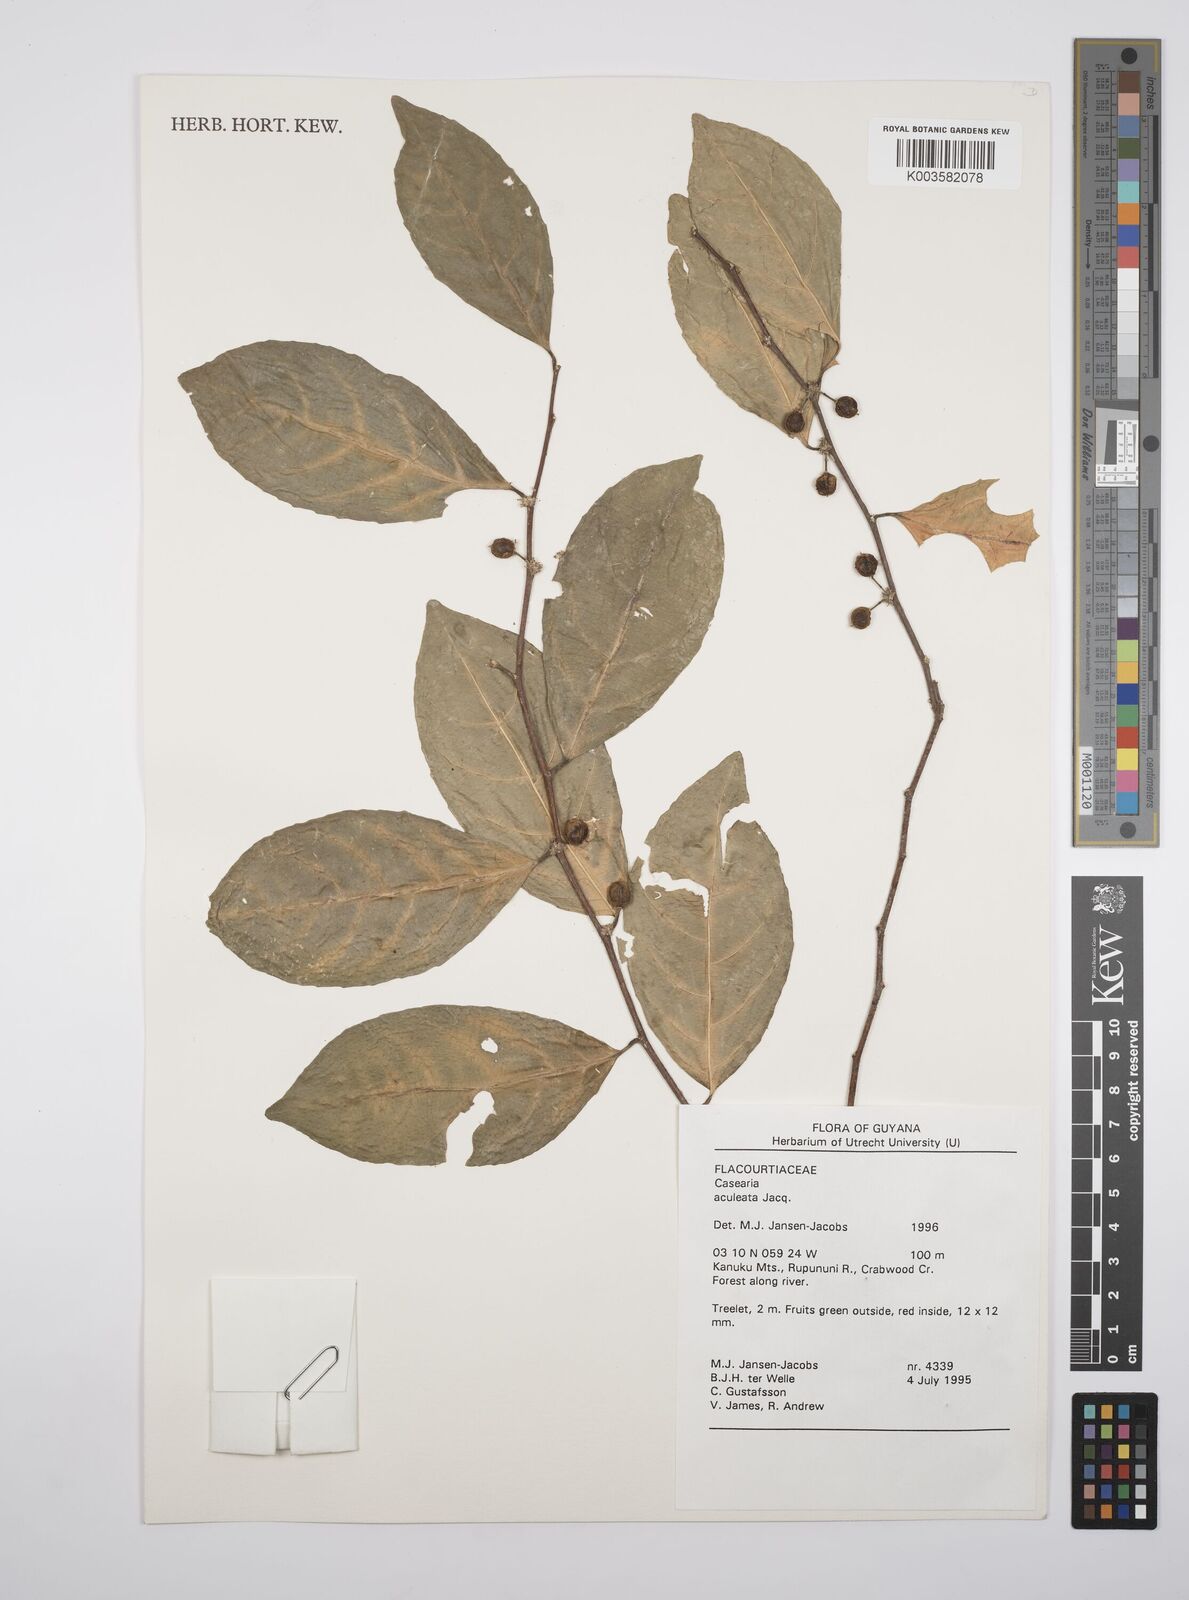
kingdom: Plantae
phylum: Tracheophyta
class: Magnoliopsida
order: Malpighiales
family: Salicaceae
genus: Casearia
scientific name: Casearia aculeata
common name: Cockspur
